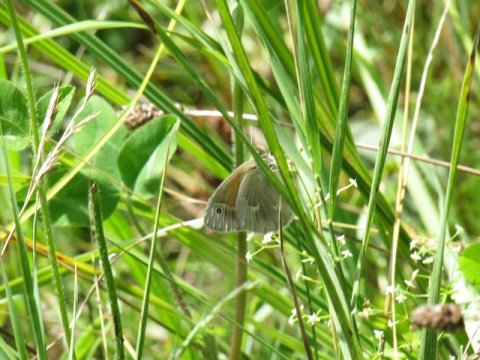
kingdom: Animalia
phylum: Arthropoda
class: Insecta
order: Lepidoptera
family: Nymphalidae
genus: Coenonympha
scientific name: Coenonympha tullia
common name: Large Heath
